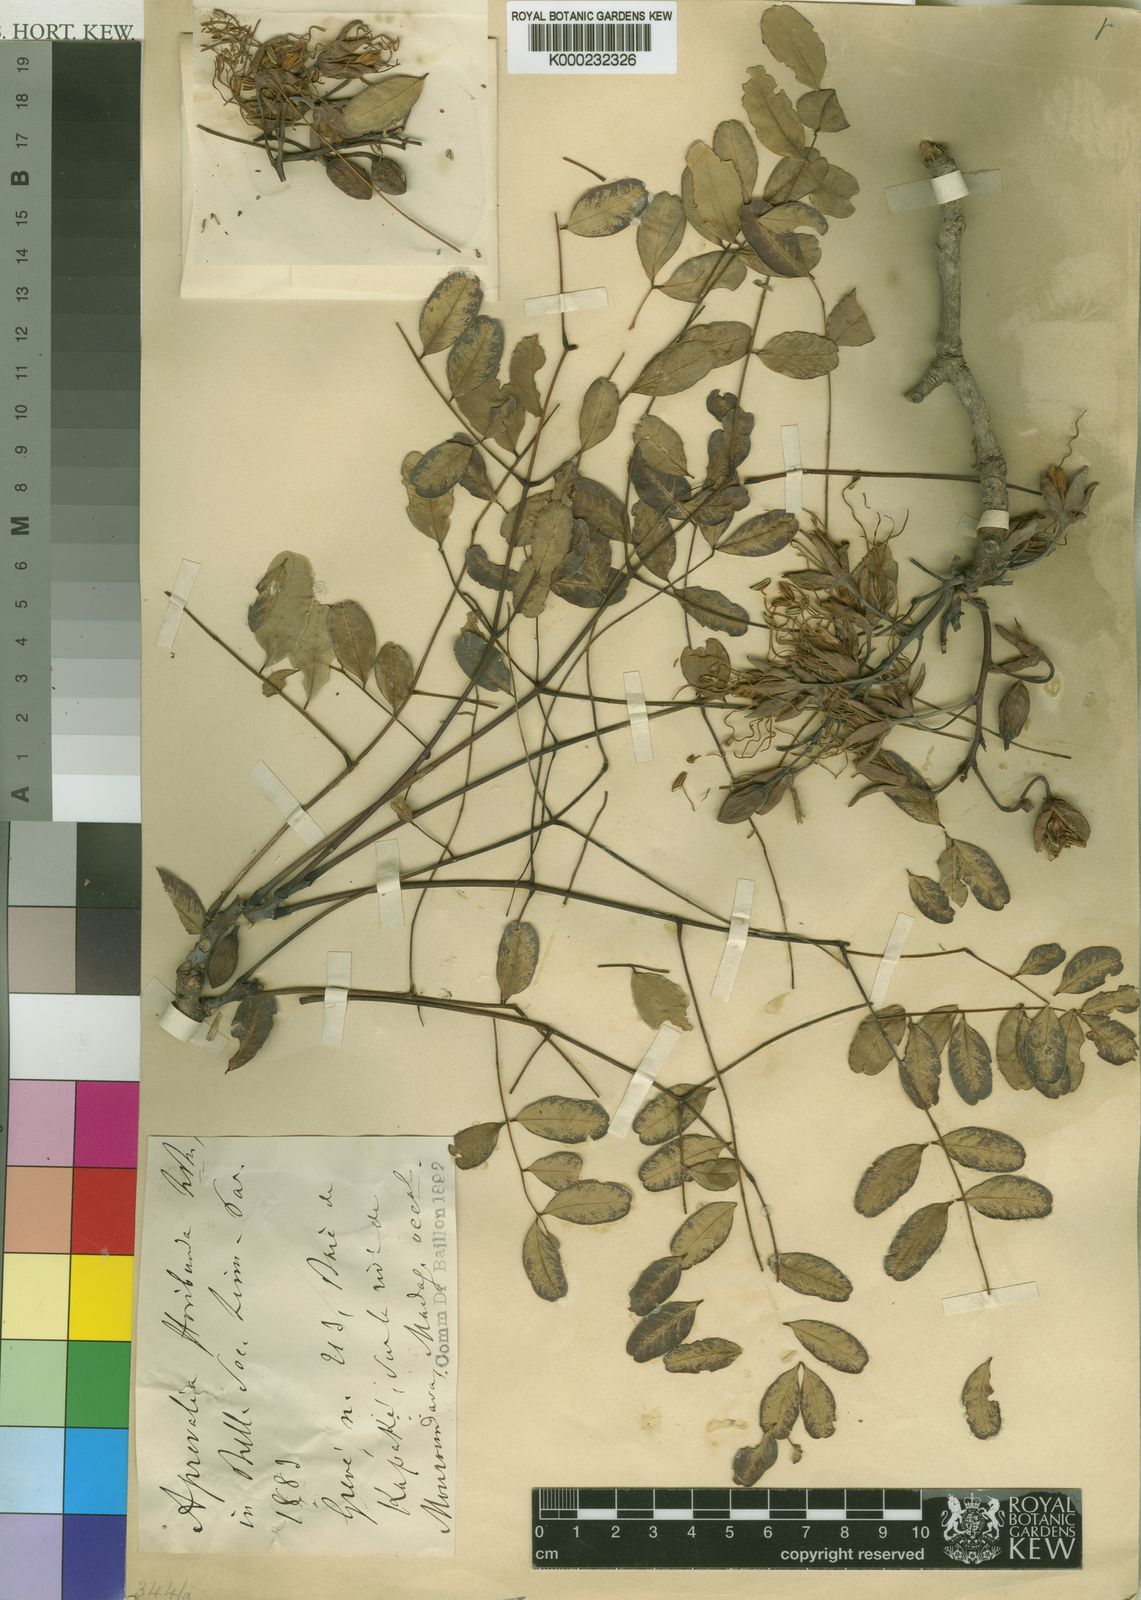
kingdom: Plantae
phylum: Tracheophyta
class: Magnoliopsida
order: Fabales
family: Fabaceae
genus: Delonix
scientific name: Delonix floribunda
